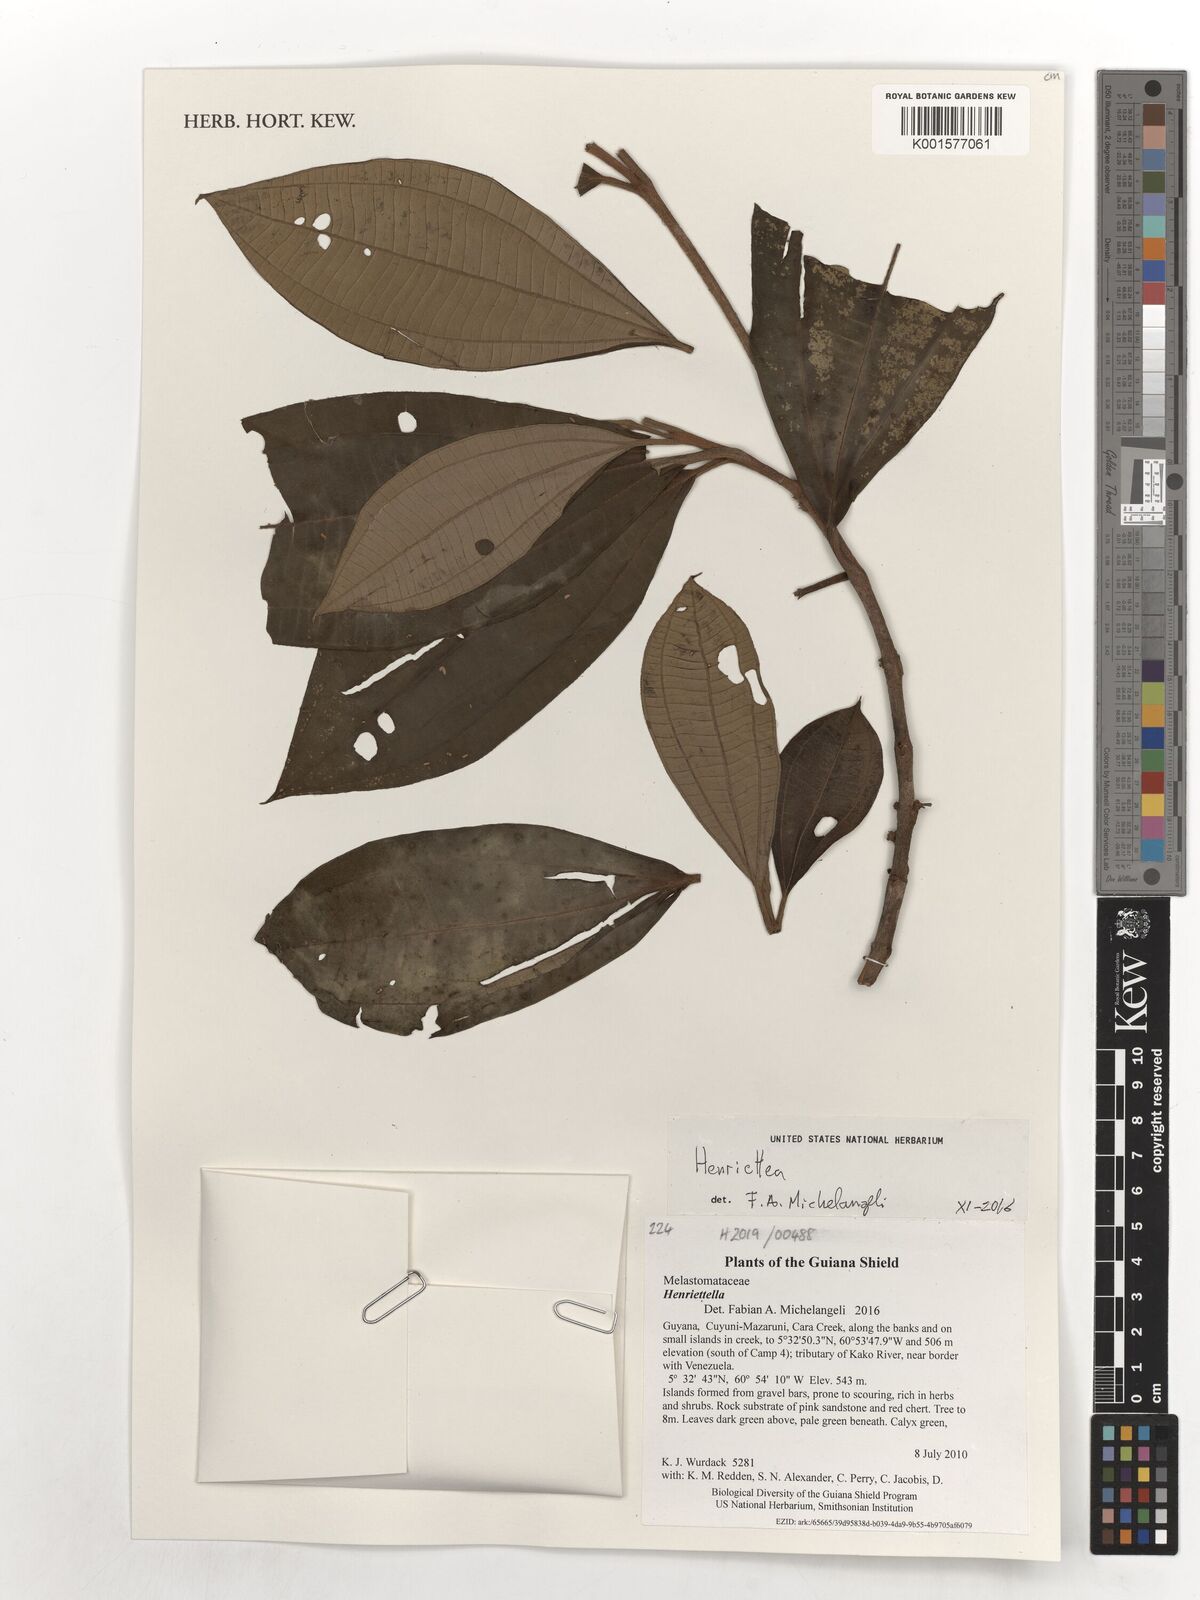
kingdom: Plantae
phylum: Tracheophyta
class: Magnoliopsida
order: Myrtales
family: Melastomataceae
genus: Henriettea
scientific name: Henriettea
